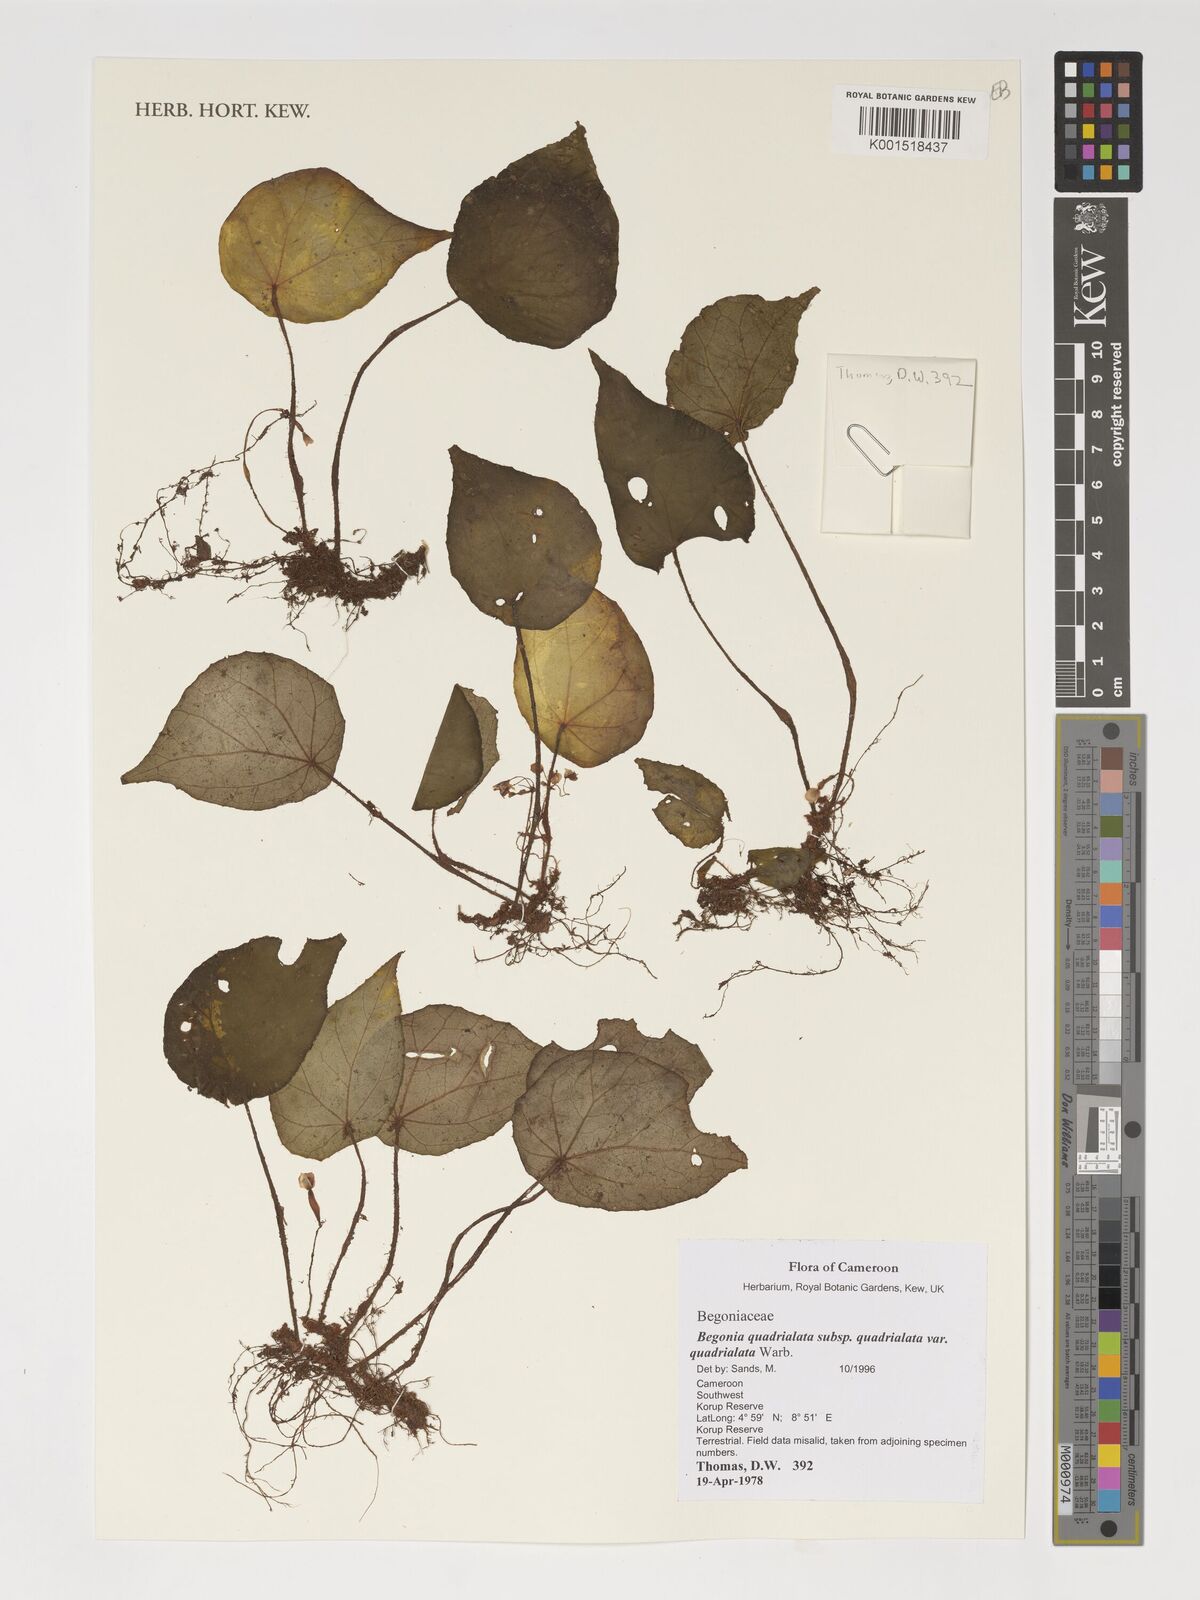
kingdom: Plantae
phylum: Tracheophyta
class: Magnoliopsida
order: Cucurbitales
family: Begoniaceae
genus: Begonia
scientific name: Begonia quadrialata
